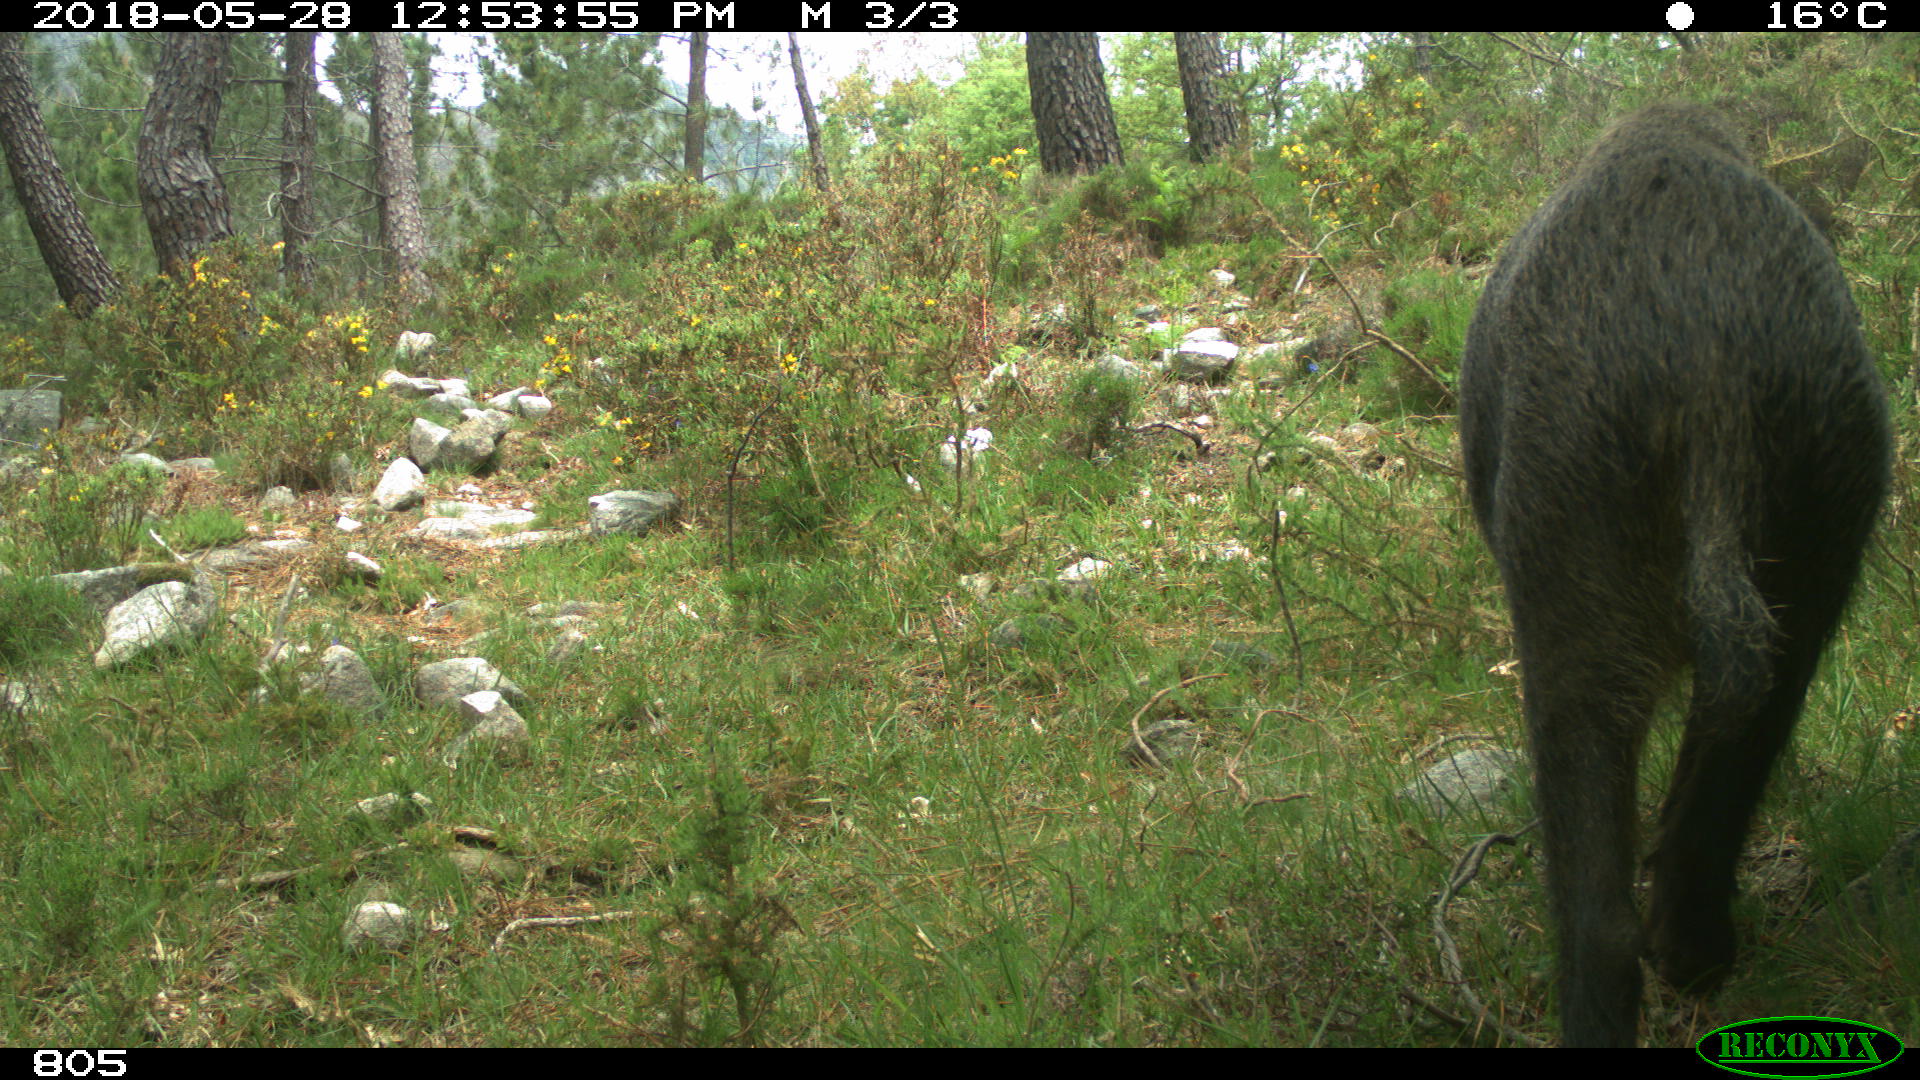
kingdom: Animalia
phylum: Chordata
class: Mammalia
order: Artiodactyla
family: Suidae
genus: Sus
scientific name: Sus scrofa
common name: Wild boar
